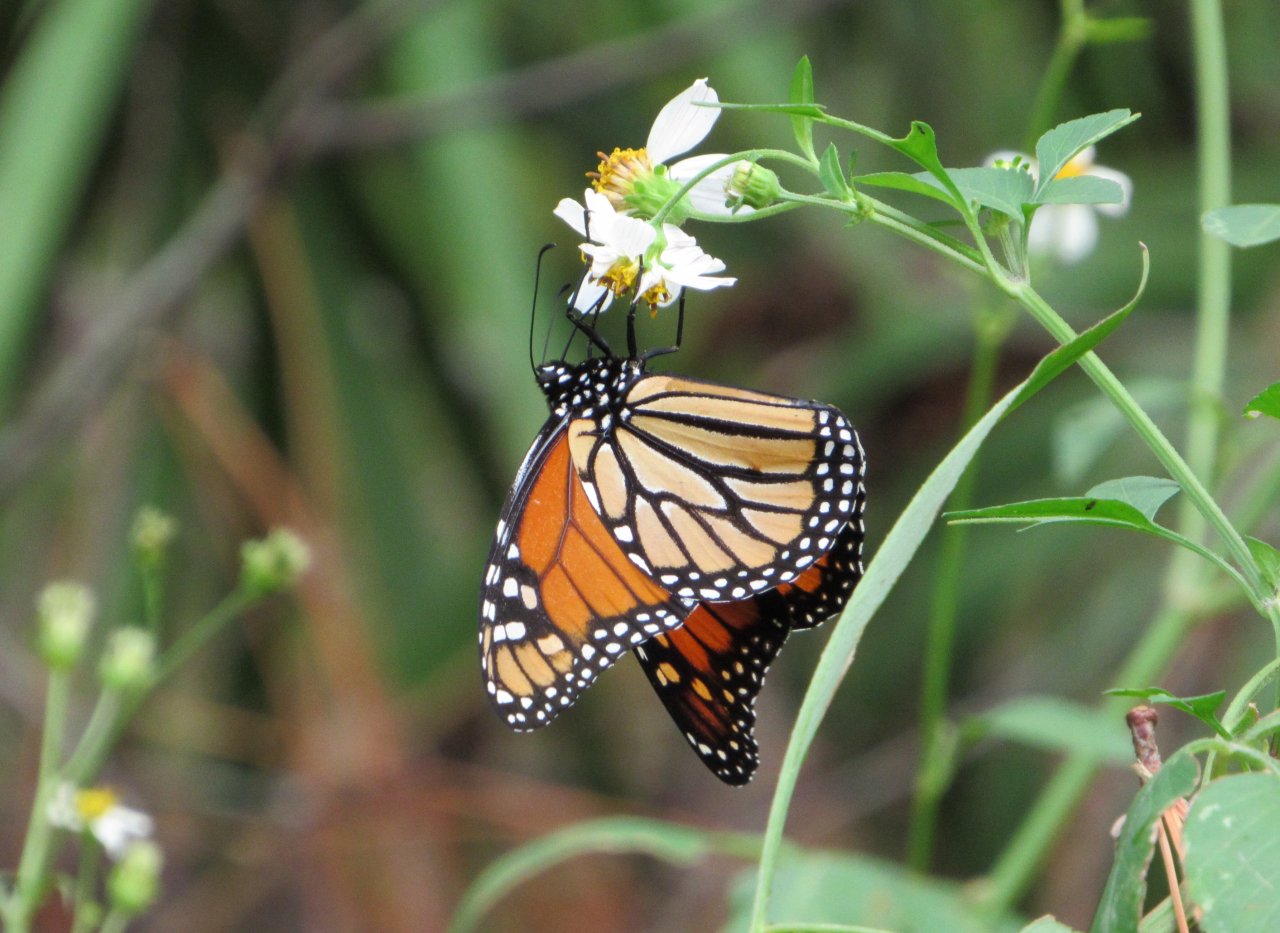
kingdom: Animalia
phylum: Arthropoda
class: Insecta
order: Lepidoptera
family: Nymphalidae
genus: Danaus
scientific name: Danaus plexippus
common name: Monarch
